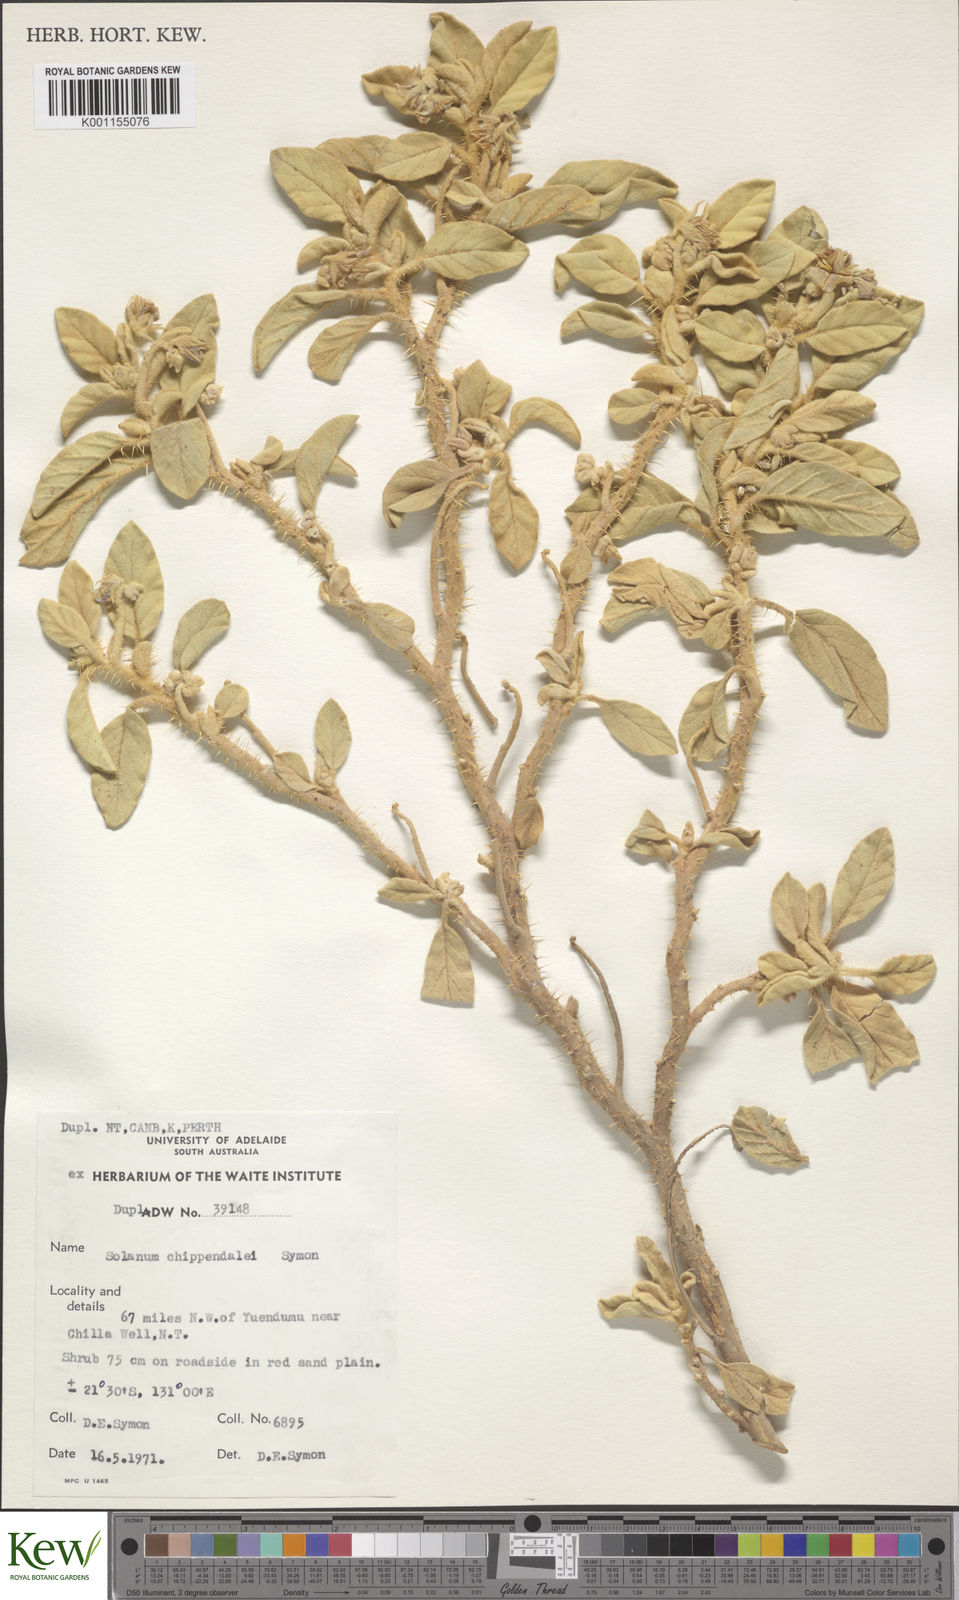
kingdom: Plantae
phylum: Tracheophyta
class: Magnoliopsida
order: Solanales
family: Solanaceae
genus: Solanum
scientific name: Solanum chippendalei
